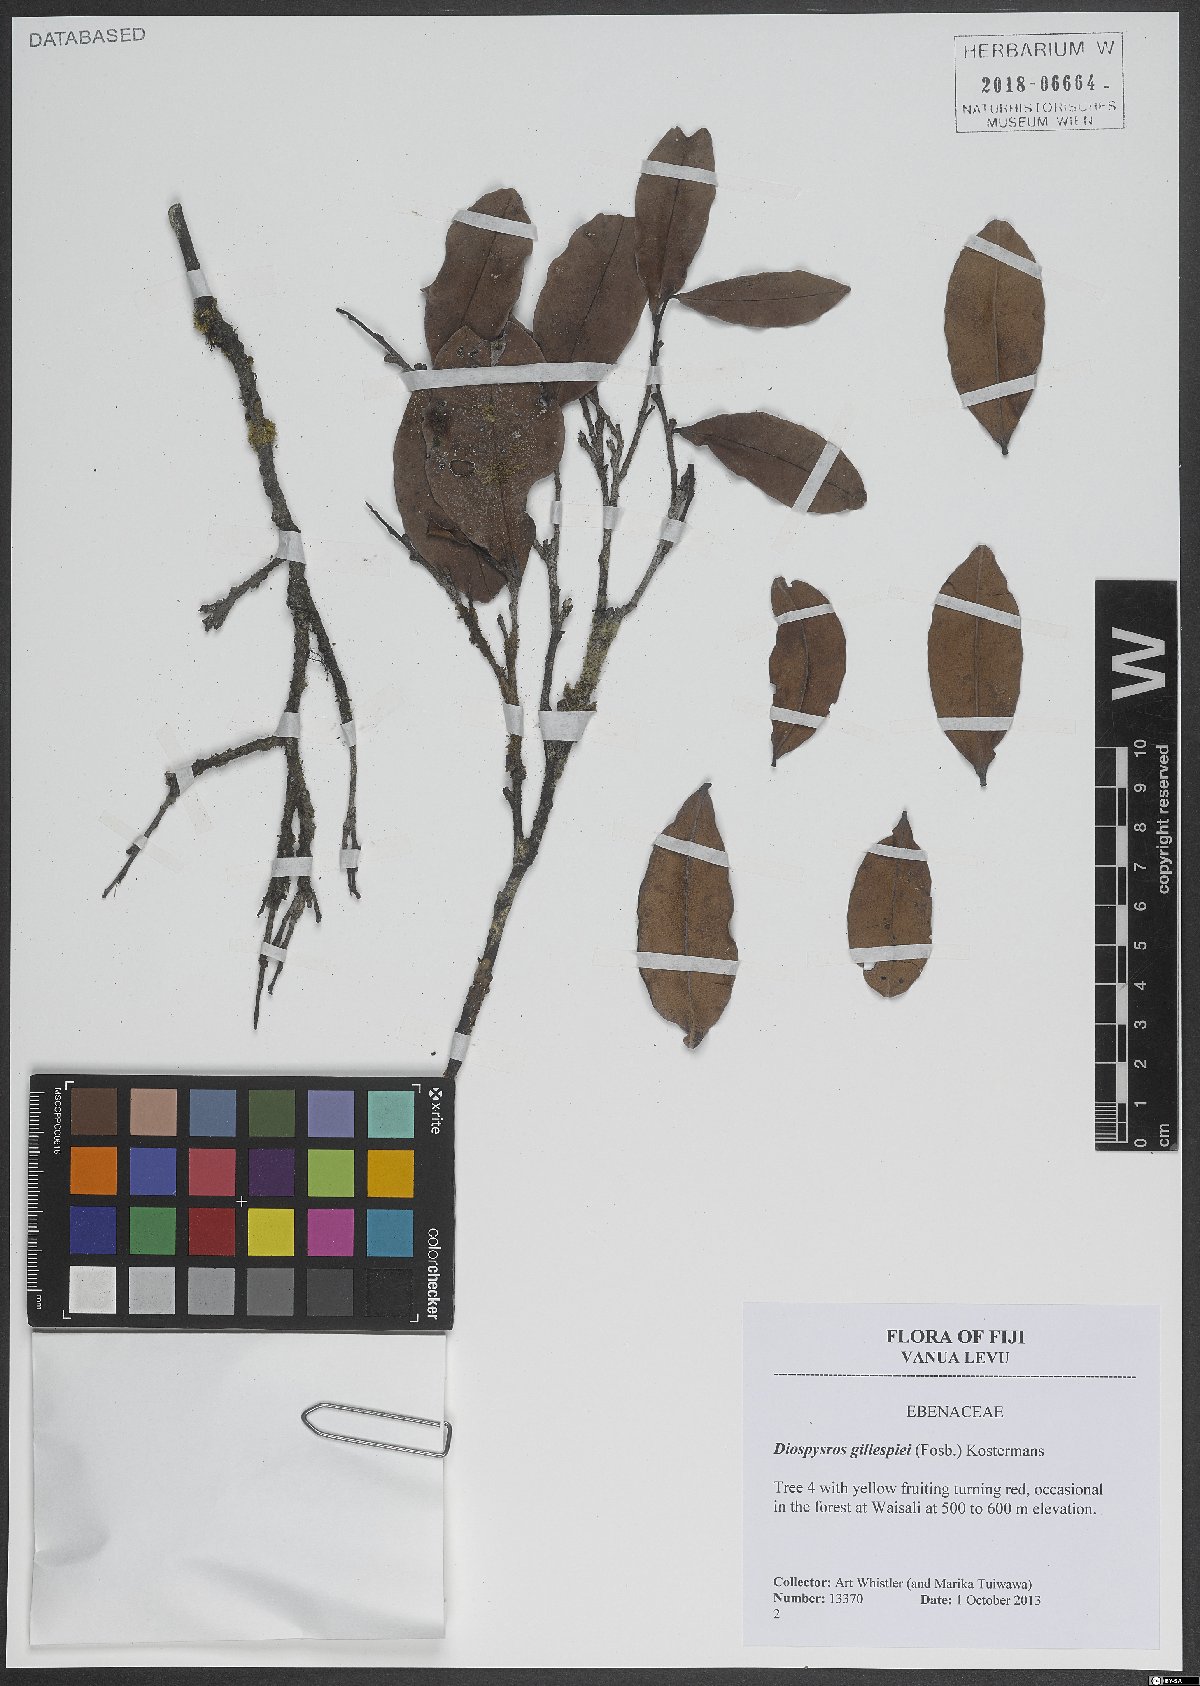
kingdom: Plantae
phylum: Tracheophyta
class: Magnoliopsida
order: Ericales
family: Ebenaceae
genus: Diospyros
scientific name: Diospyros gillespiei
